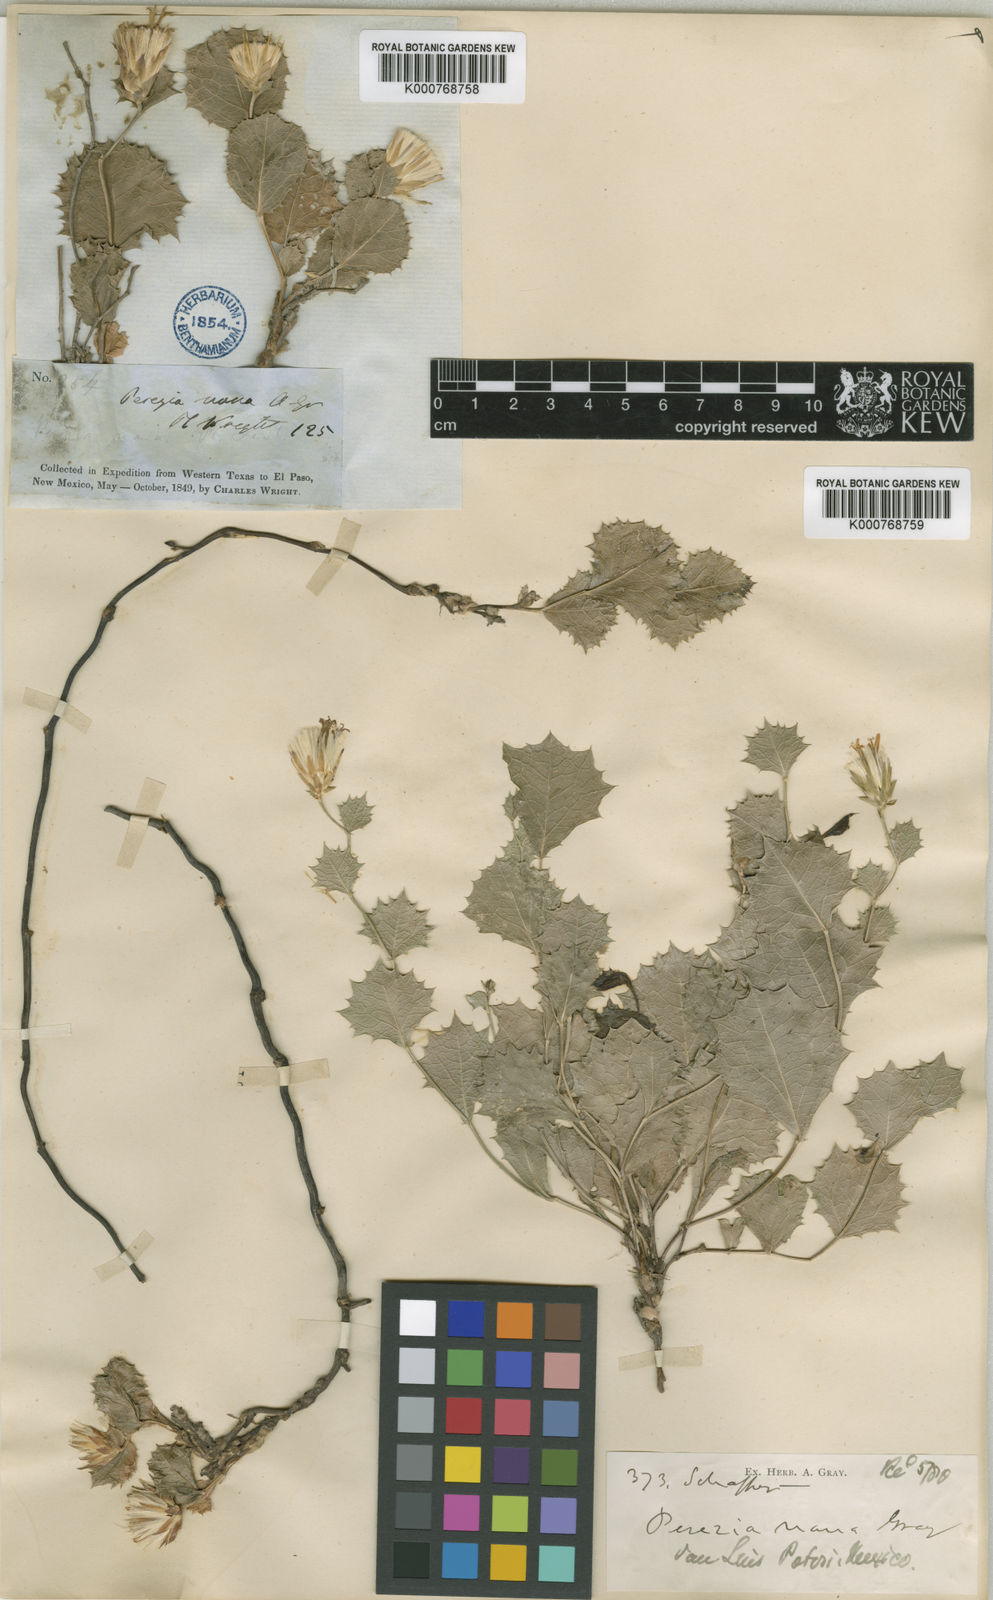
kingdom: Plantae
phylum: Tracheophyta
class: Magnoliopsida
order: Asterales
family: Asteraceae
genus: Acourtia
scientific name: Acourtia nana
